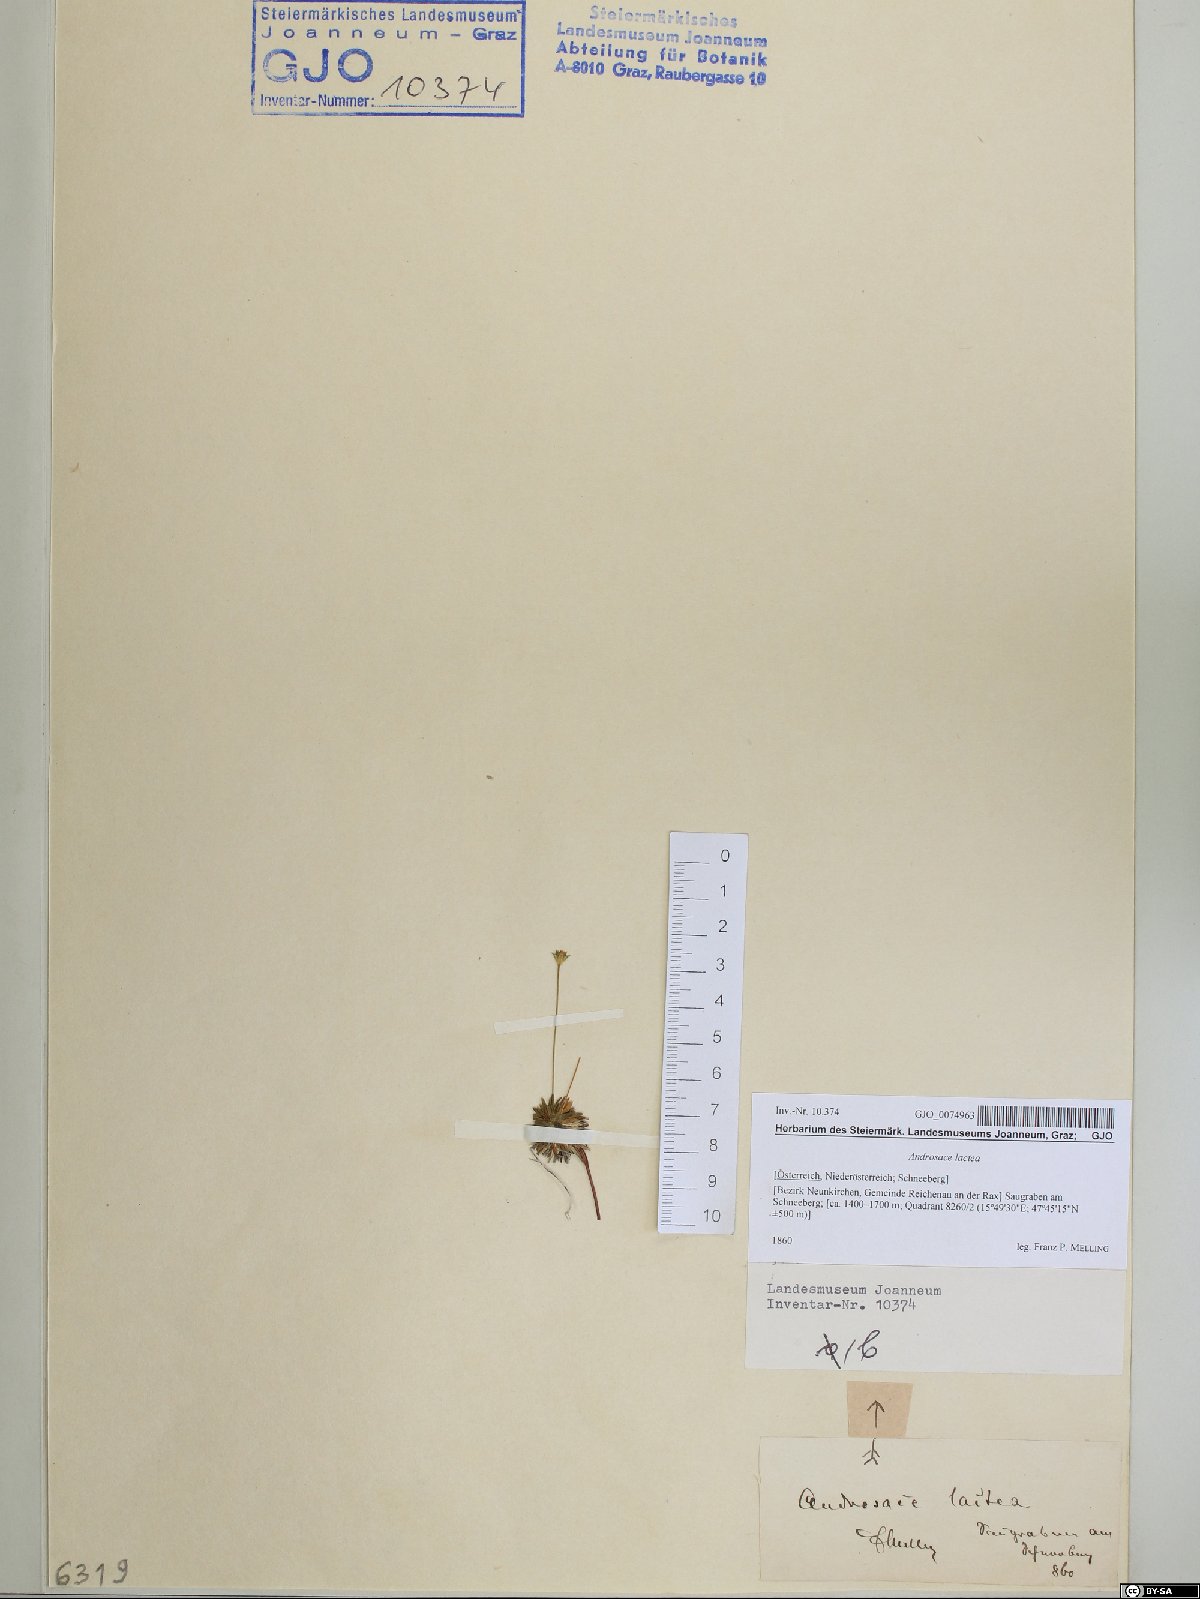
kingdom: Plantae
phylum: Tracheophyta
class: Magnoliopsida
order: Ericales
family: Primulaceae
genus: Androsace
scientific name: Androsace lactea
